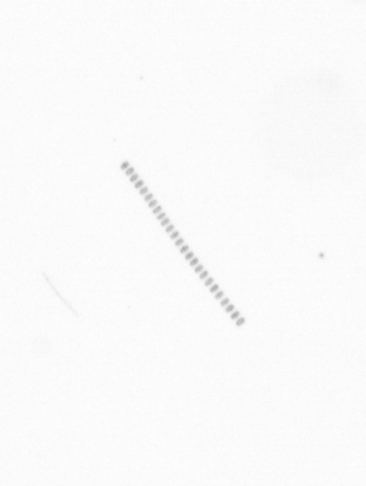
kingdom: Chromista
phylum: Ochrophyta
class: Bacillariophyceae
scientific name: Bacillariophyceae
